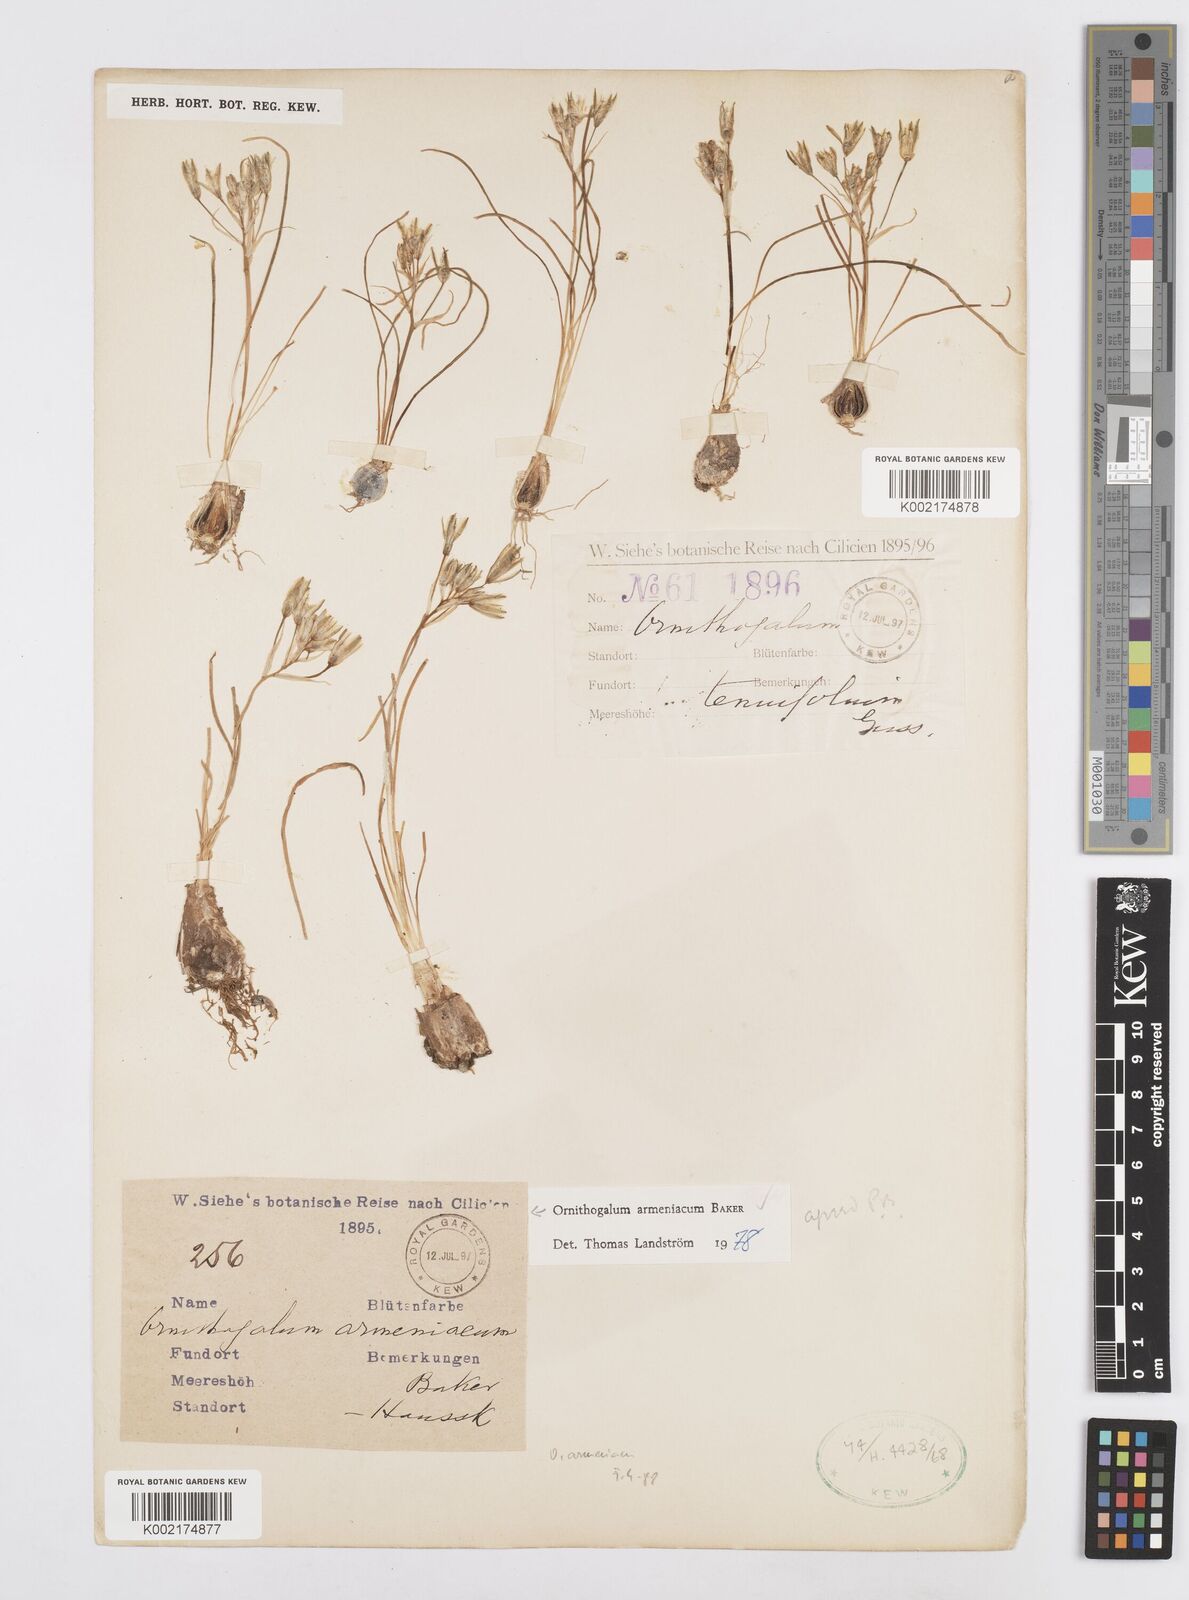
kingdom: Plantae
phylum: Tracheophyta
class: Liliopsida
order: Asparagales
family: Asparagaceae
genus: Ornithogalum
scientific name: Ornithogalum armeniacum
